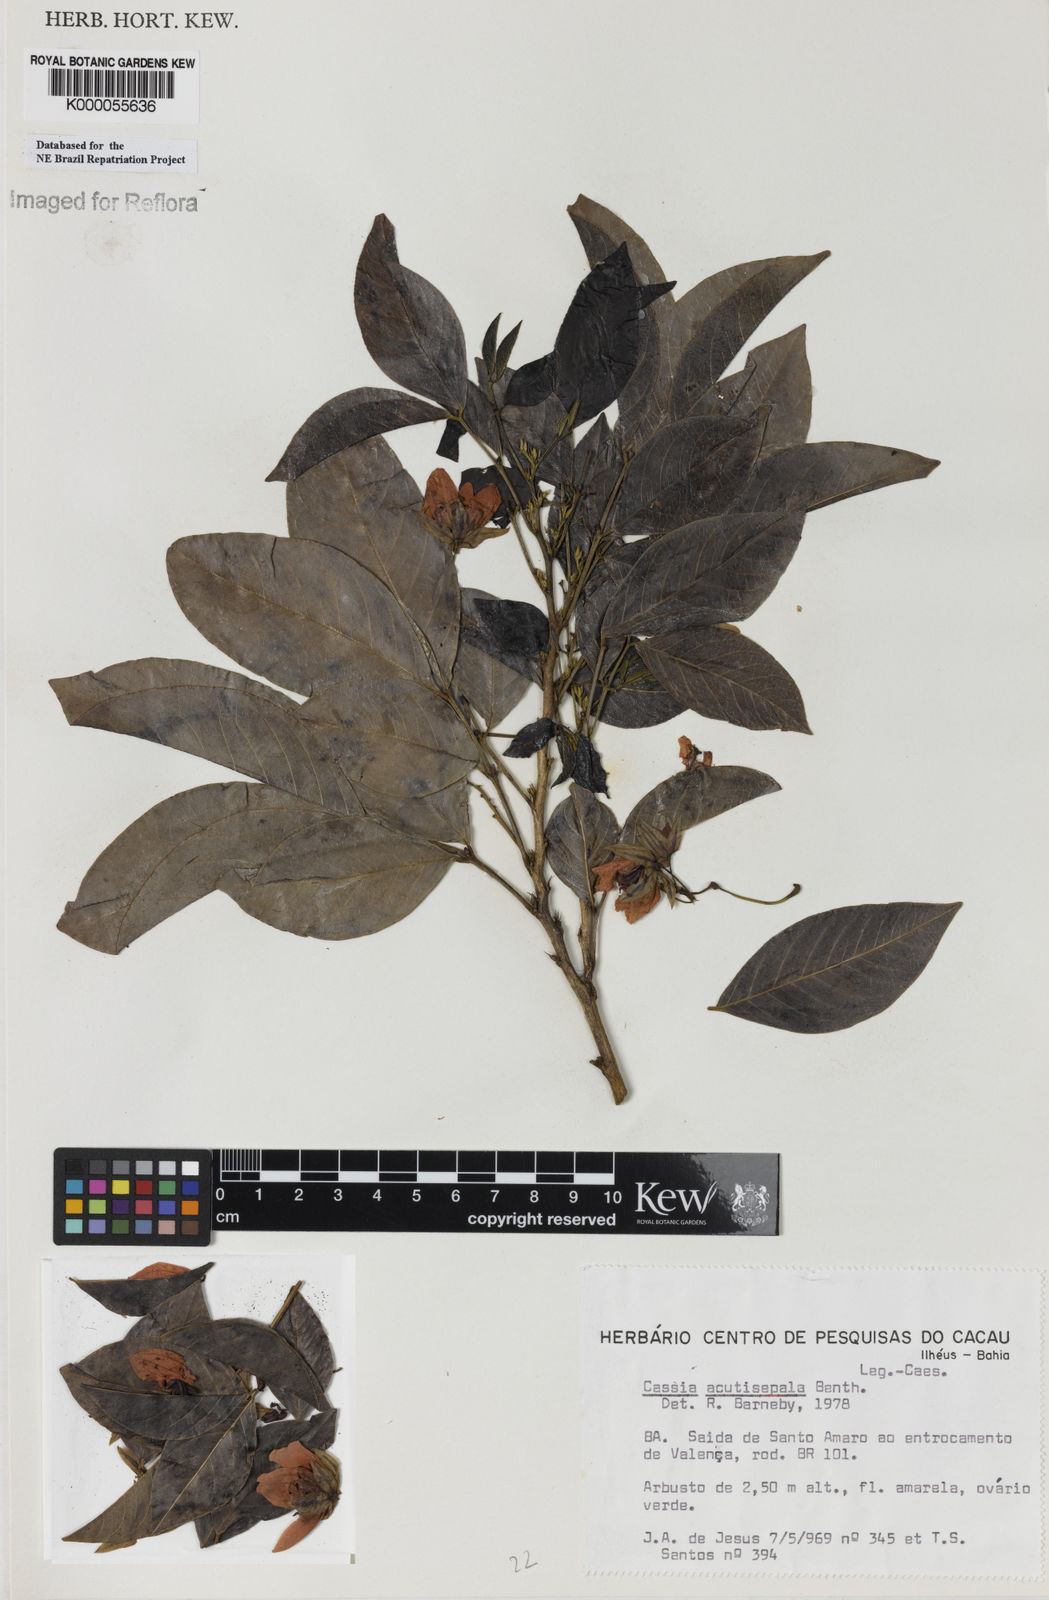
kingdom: Plantae
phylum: Tracheophyta
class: Magnoliopsida
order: Fabales
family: Fabaceae
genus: Senna
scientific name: Senna acutisepala
